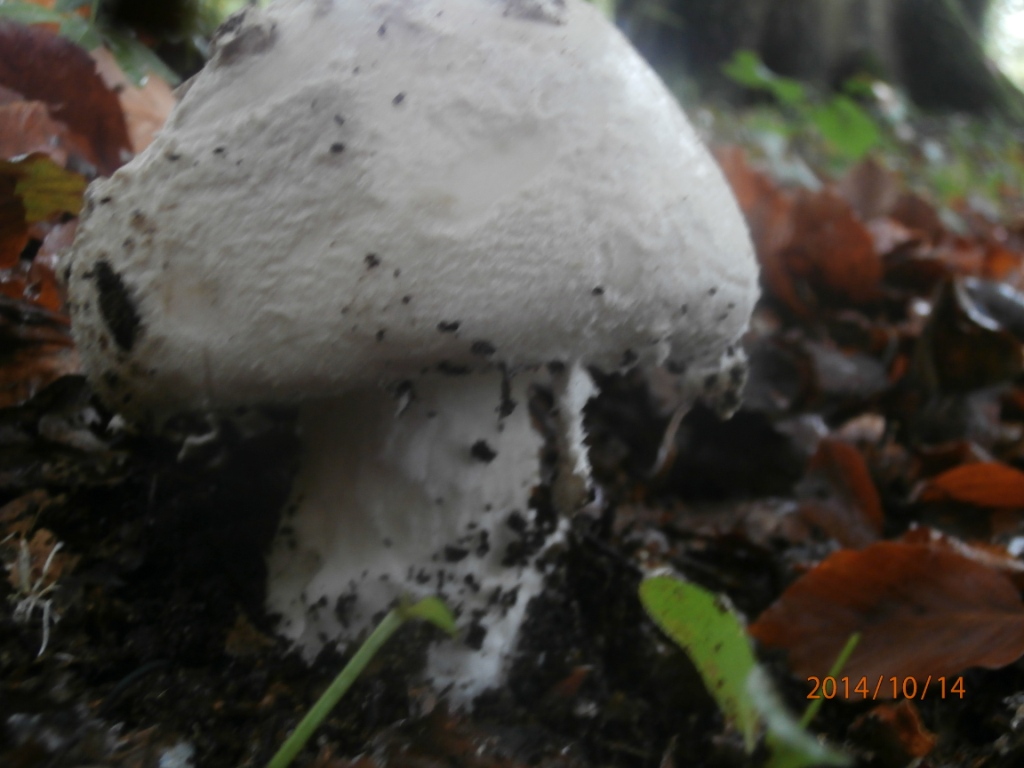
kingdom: Fungi
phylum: Basidiomycota
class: Agaricomycetes
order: Agaricales
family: Amanitaceae
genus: Amanita
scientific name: Amanita
